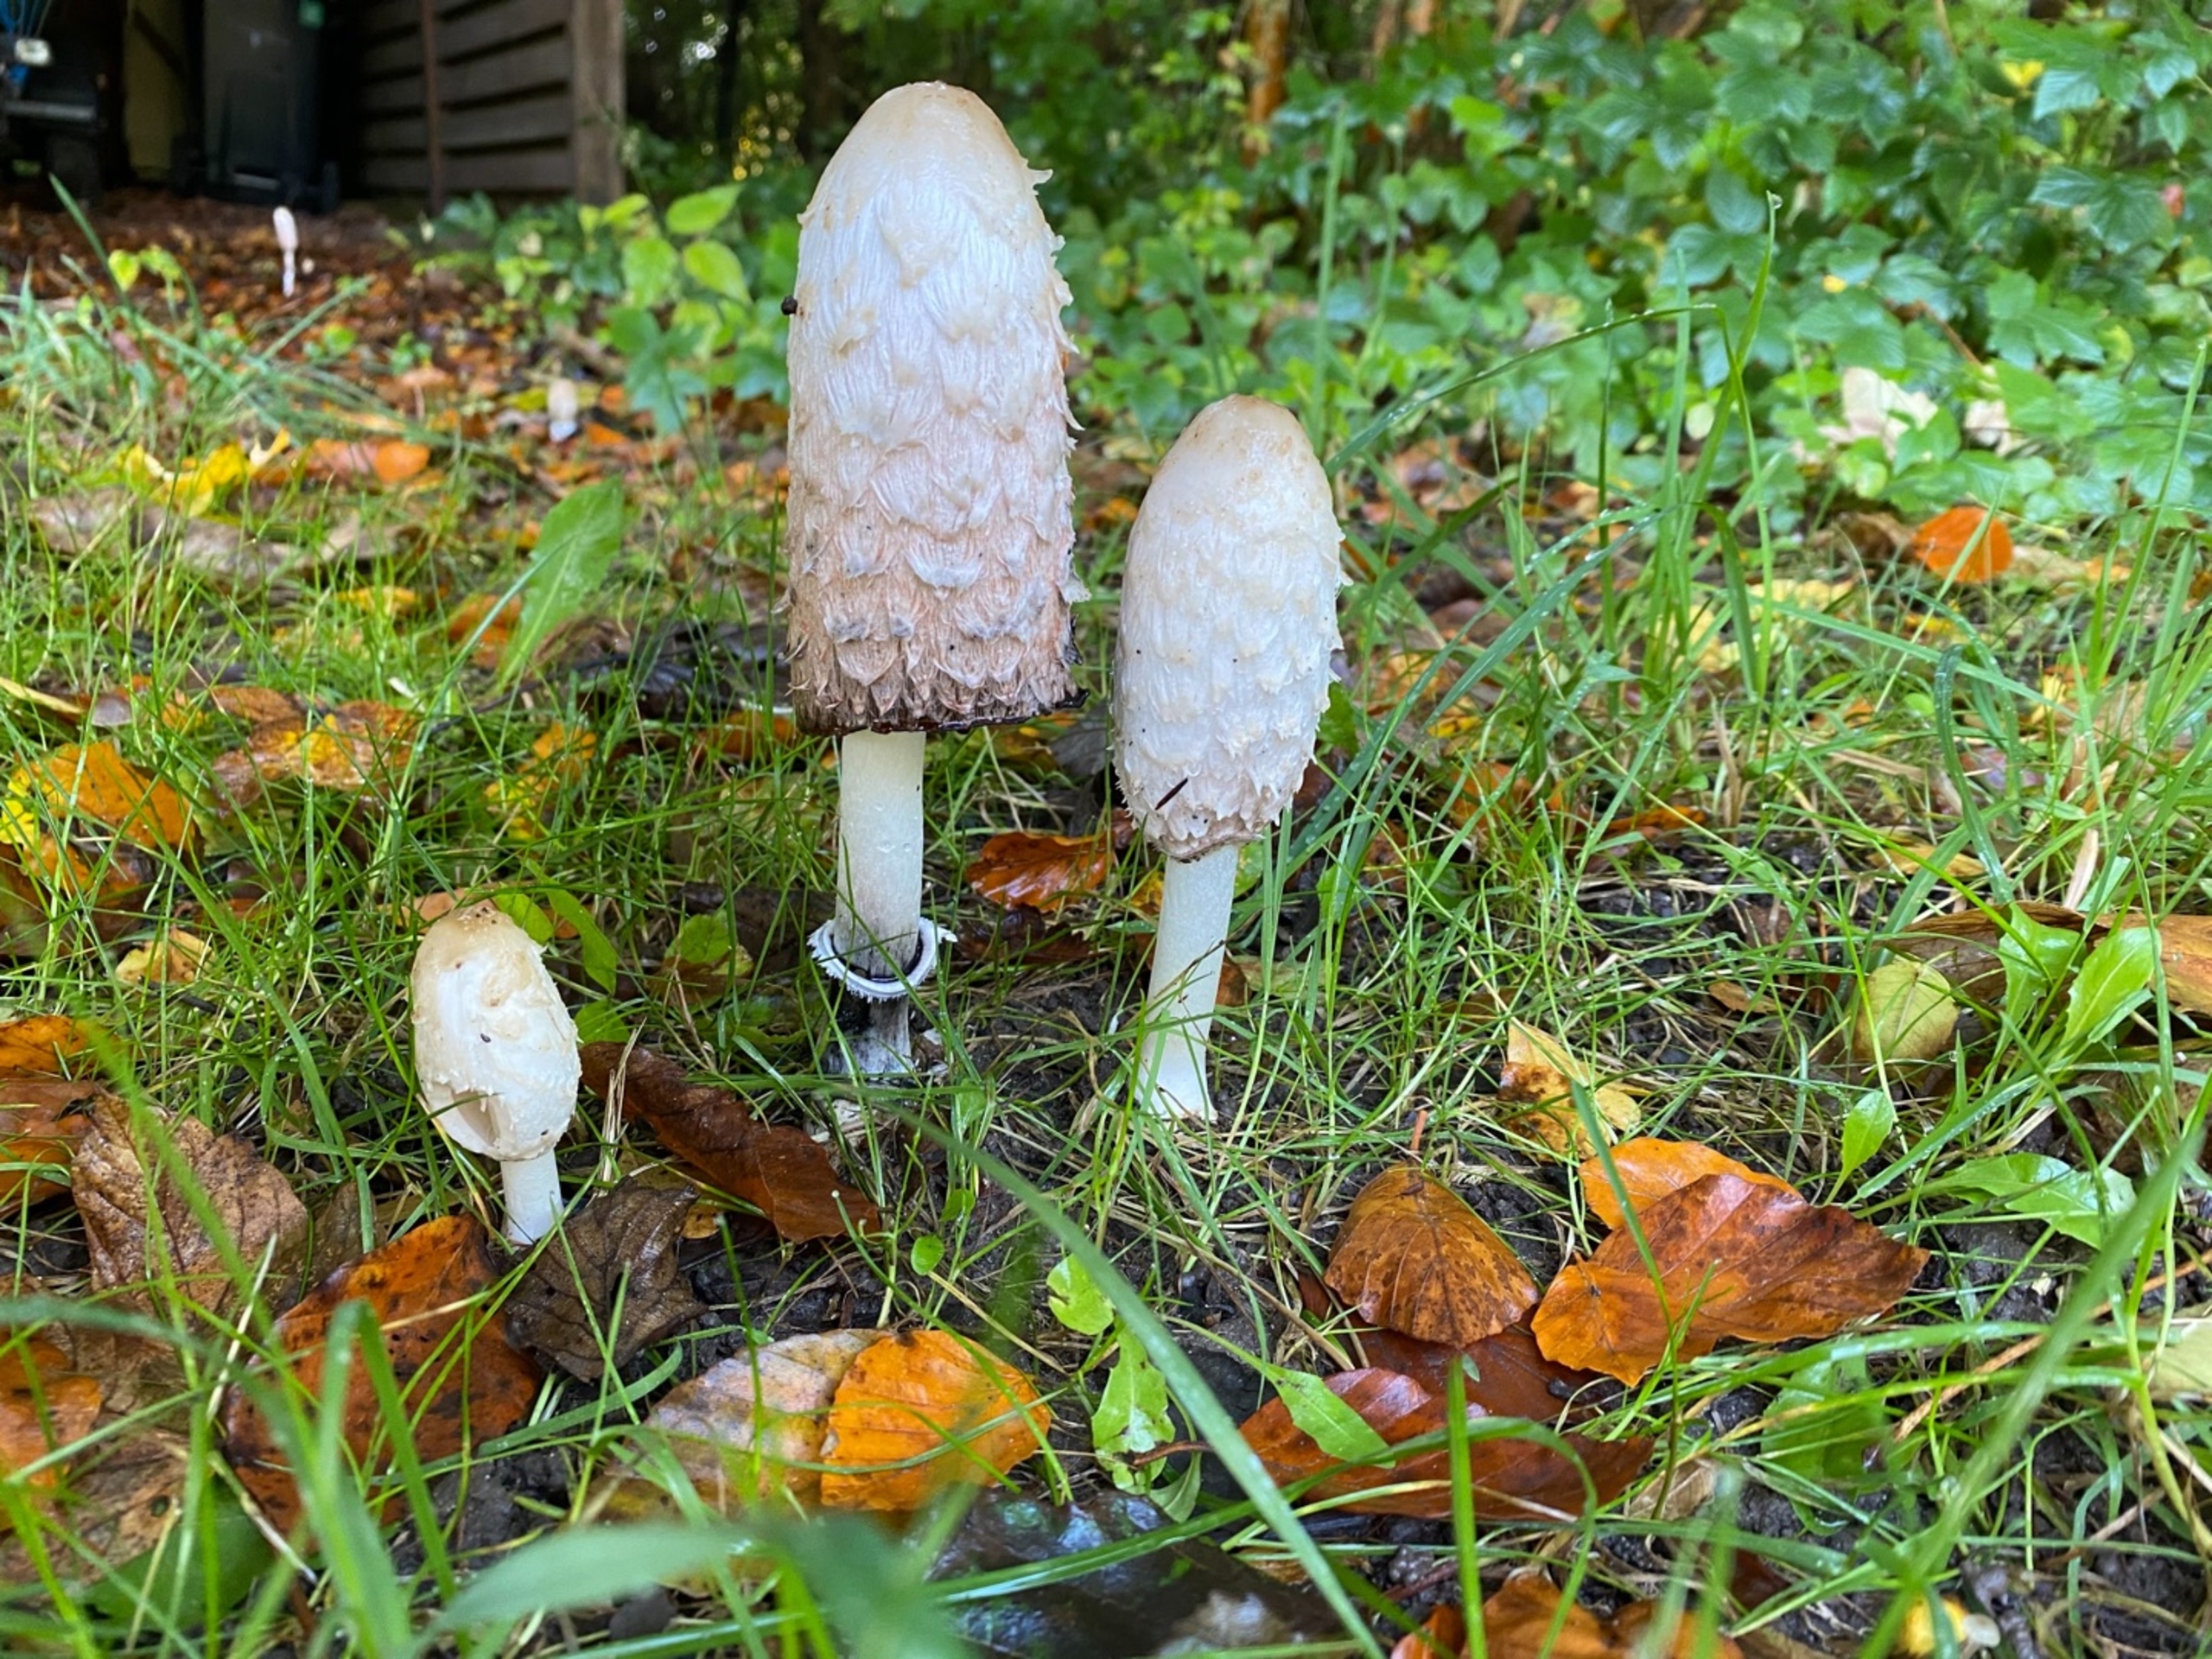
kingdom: Fungi
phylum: Basidiomycota
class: Agaricomycetes
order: Agaricales
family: Agaricaceae
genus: Coprinus
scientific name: Coprinus comatus
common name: Stor parykhat
